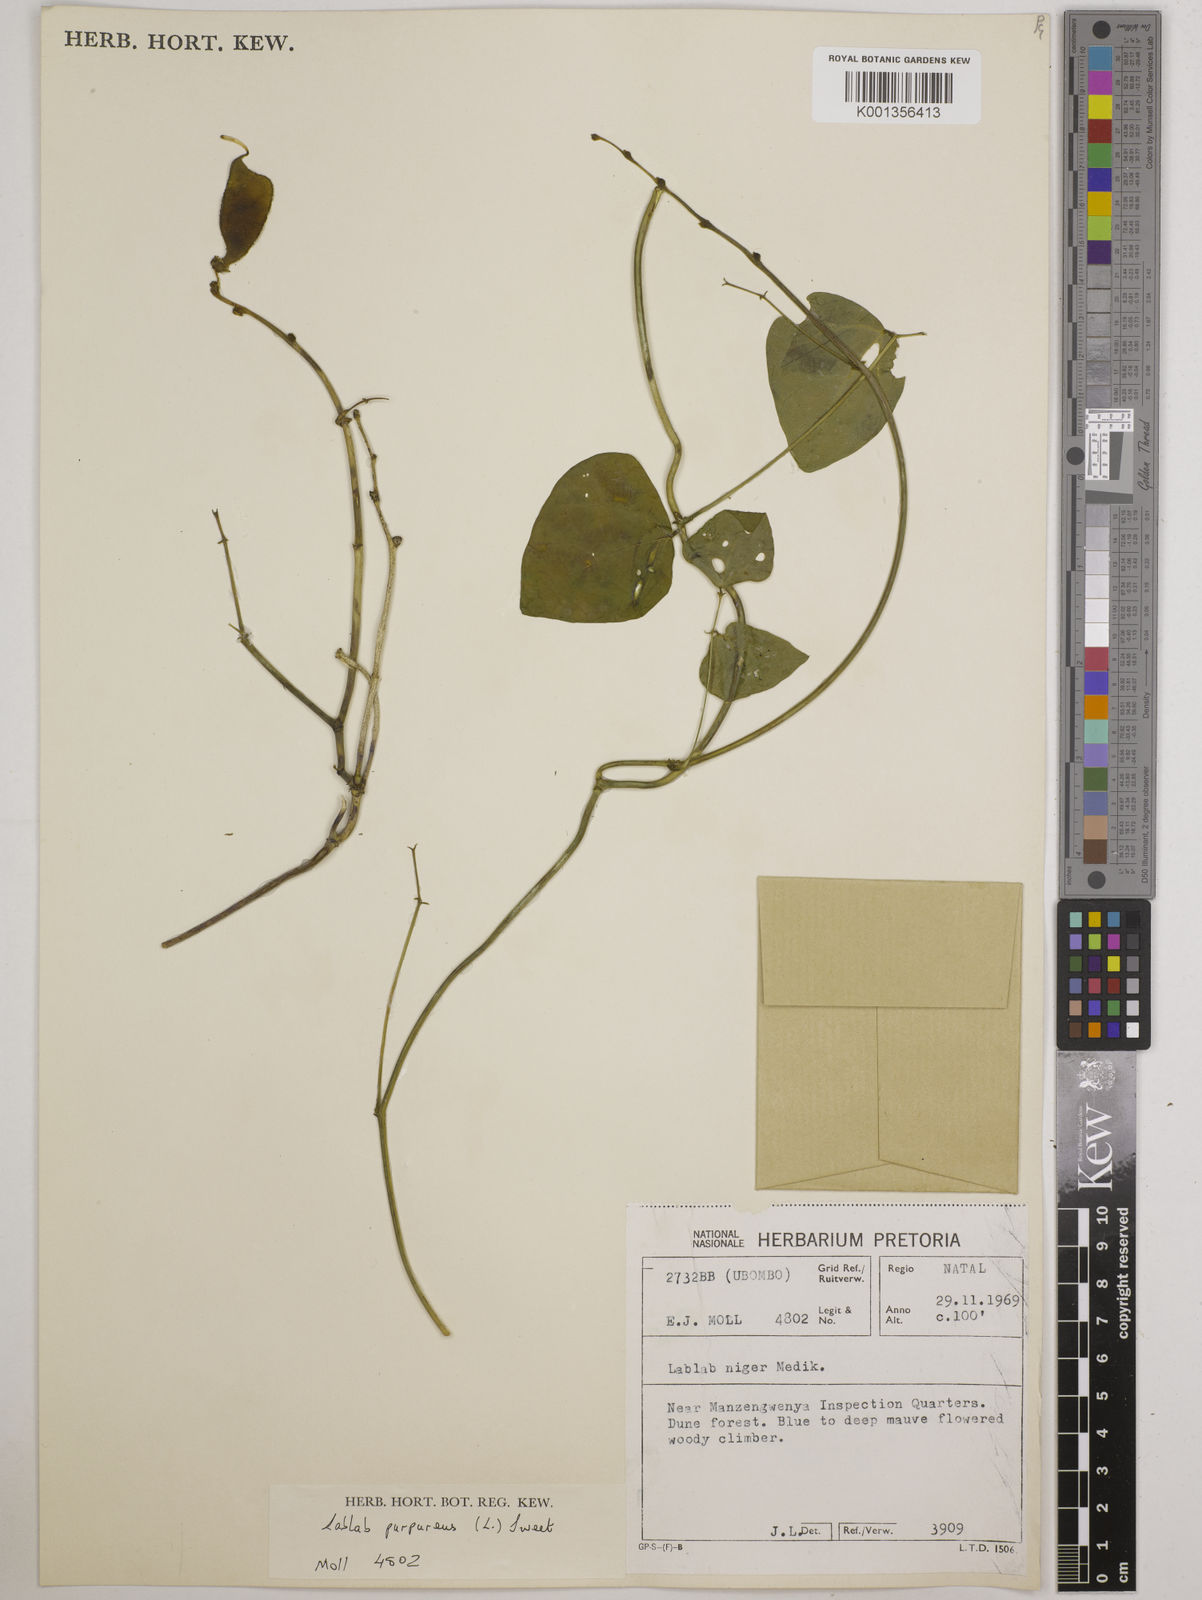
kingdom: Plantae
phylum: Tracheophyta
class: Magnoliopsida
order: Fabales
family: Fabaceae
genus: Lablab
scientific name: Lablab purpureus
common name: Lablab-bean
